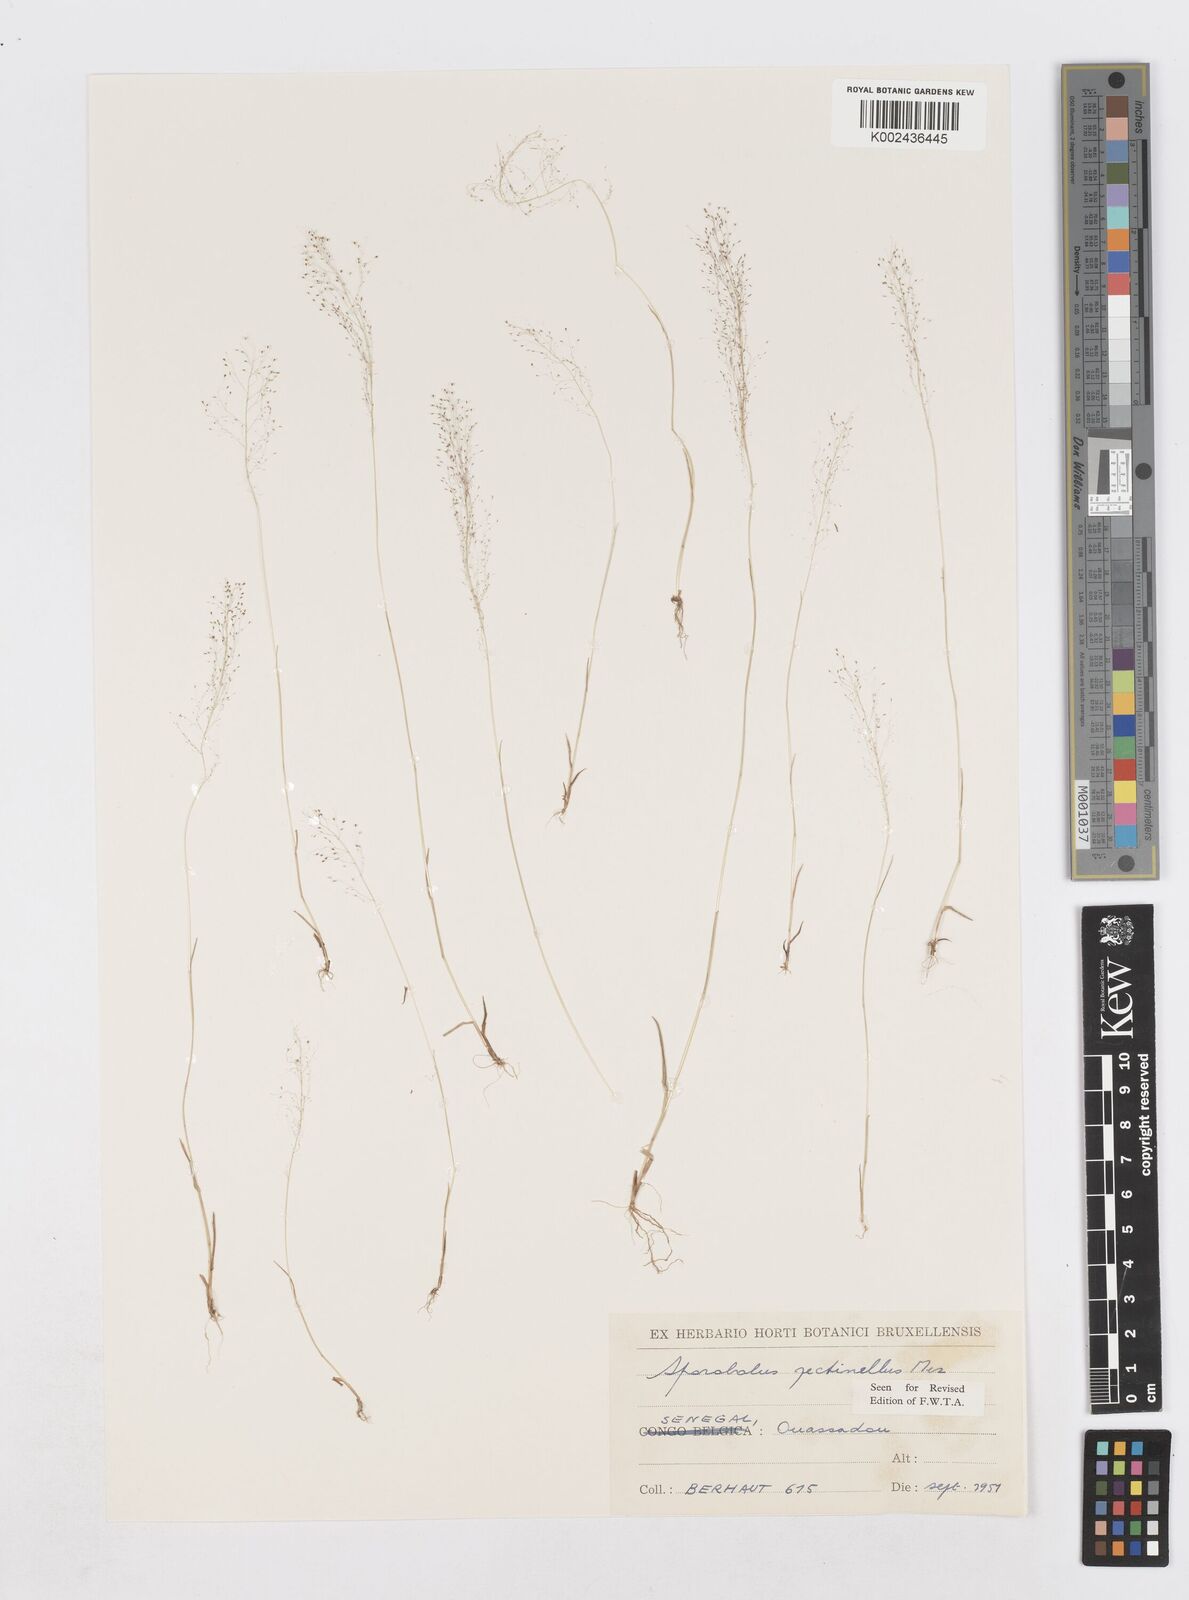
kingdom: Plantae
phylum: Tracheophyta
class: Liliopsida
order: Poales
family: Poaceae
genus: Sporobolus
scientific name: Sporobolus pectinellus
